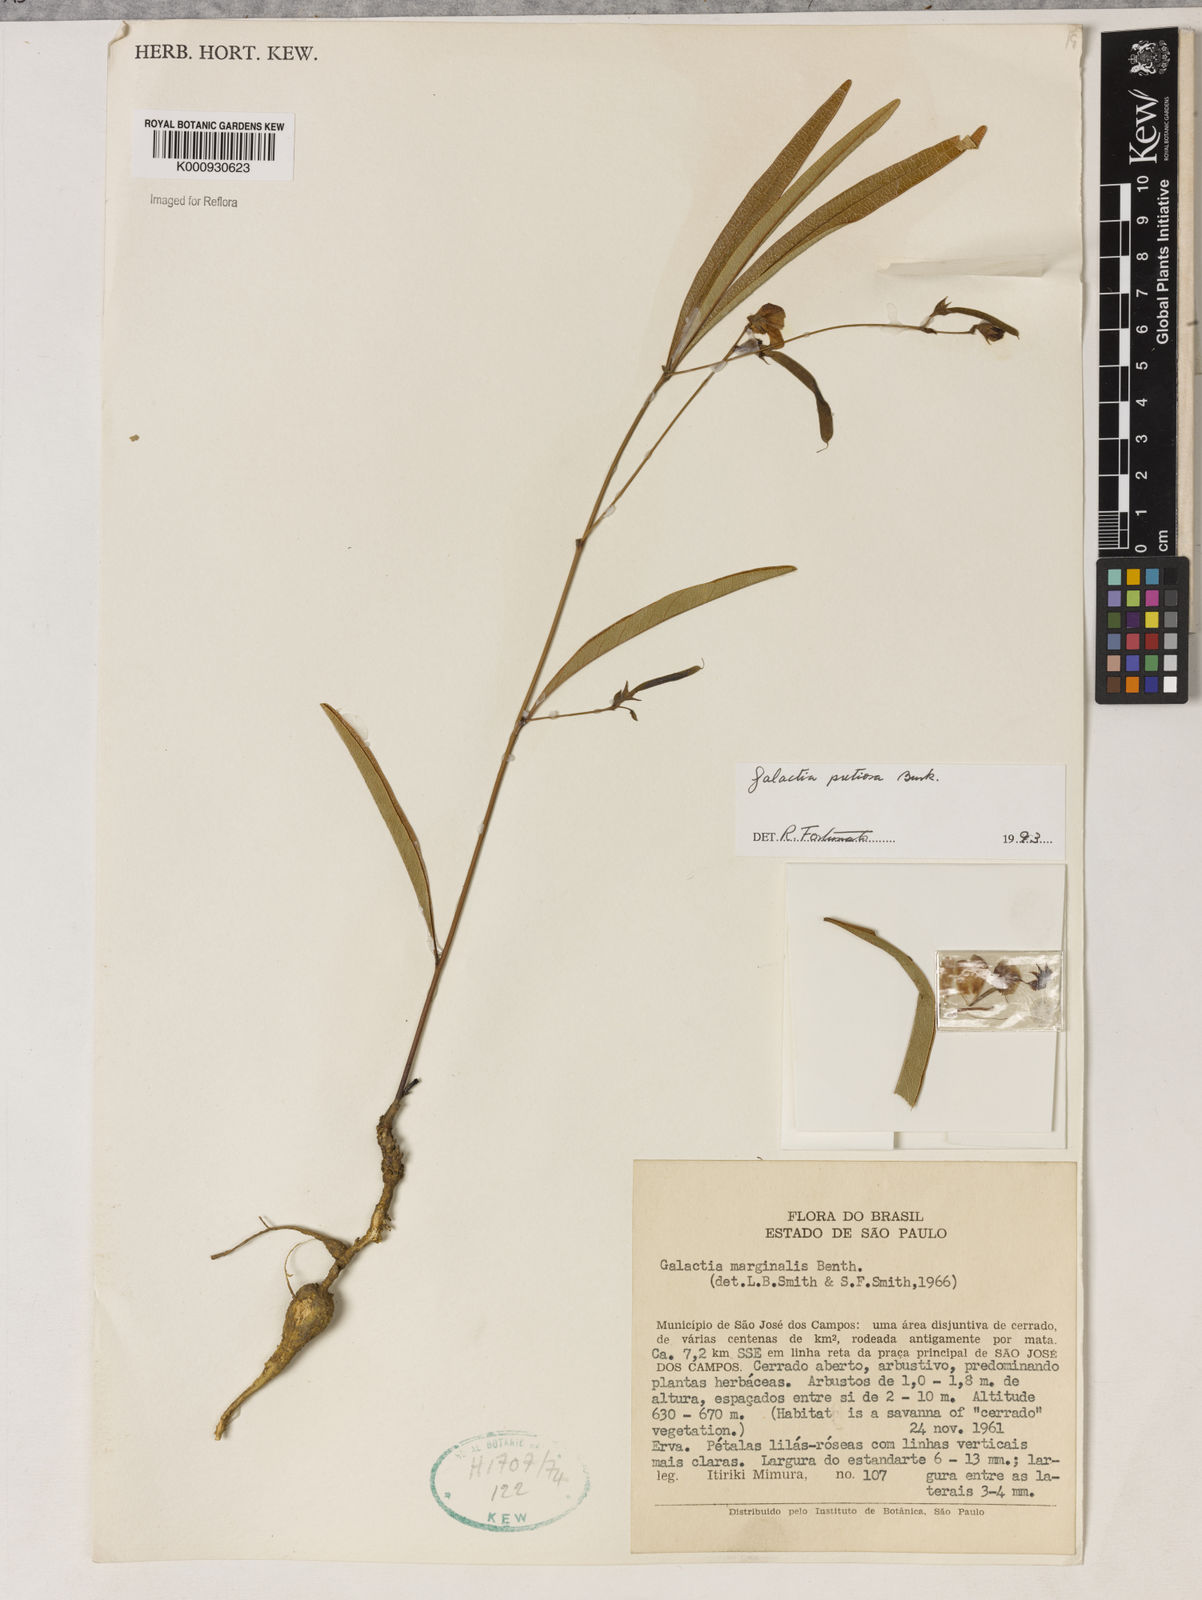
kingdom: Plantae
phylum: Tracheophyta
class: Magnoliopsida
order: Fabales
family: Fabaceae
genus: Nanogalactia
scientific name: Nanogalactia pretiosa
